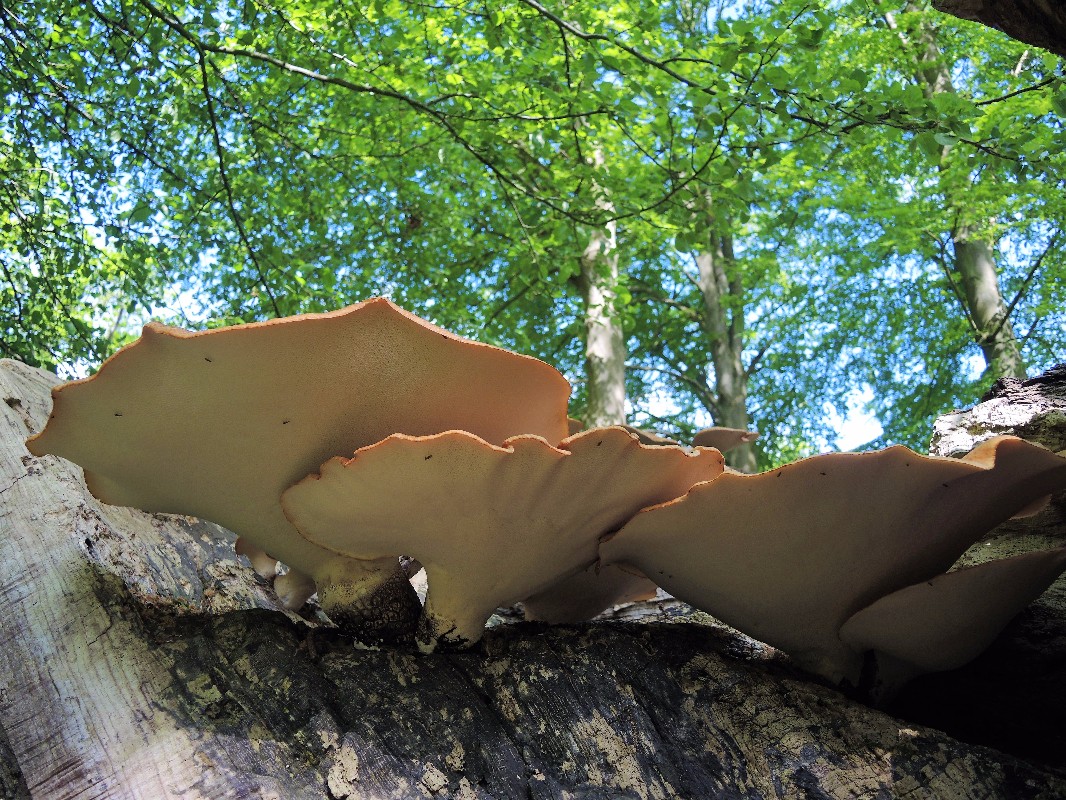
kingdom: Fungi
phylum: Basidiomycota
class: Agaricomycetes
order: Polyporales
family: Polyporaceae
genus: Cerioporus
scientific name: Cerioporus squamosus
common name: skællet stilkporesvamp
